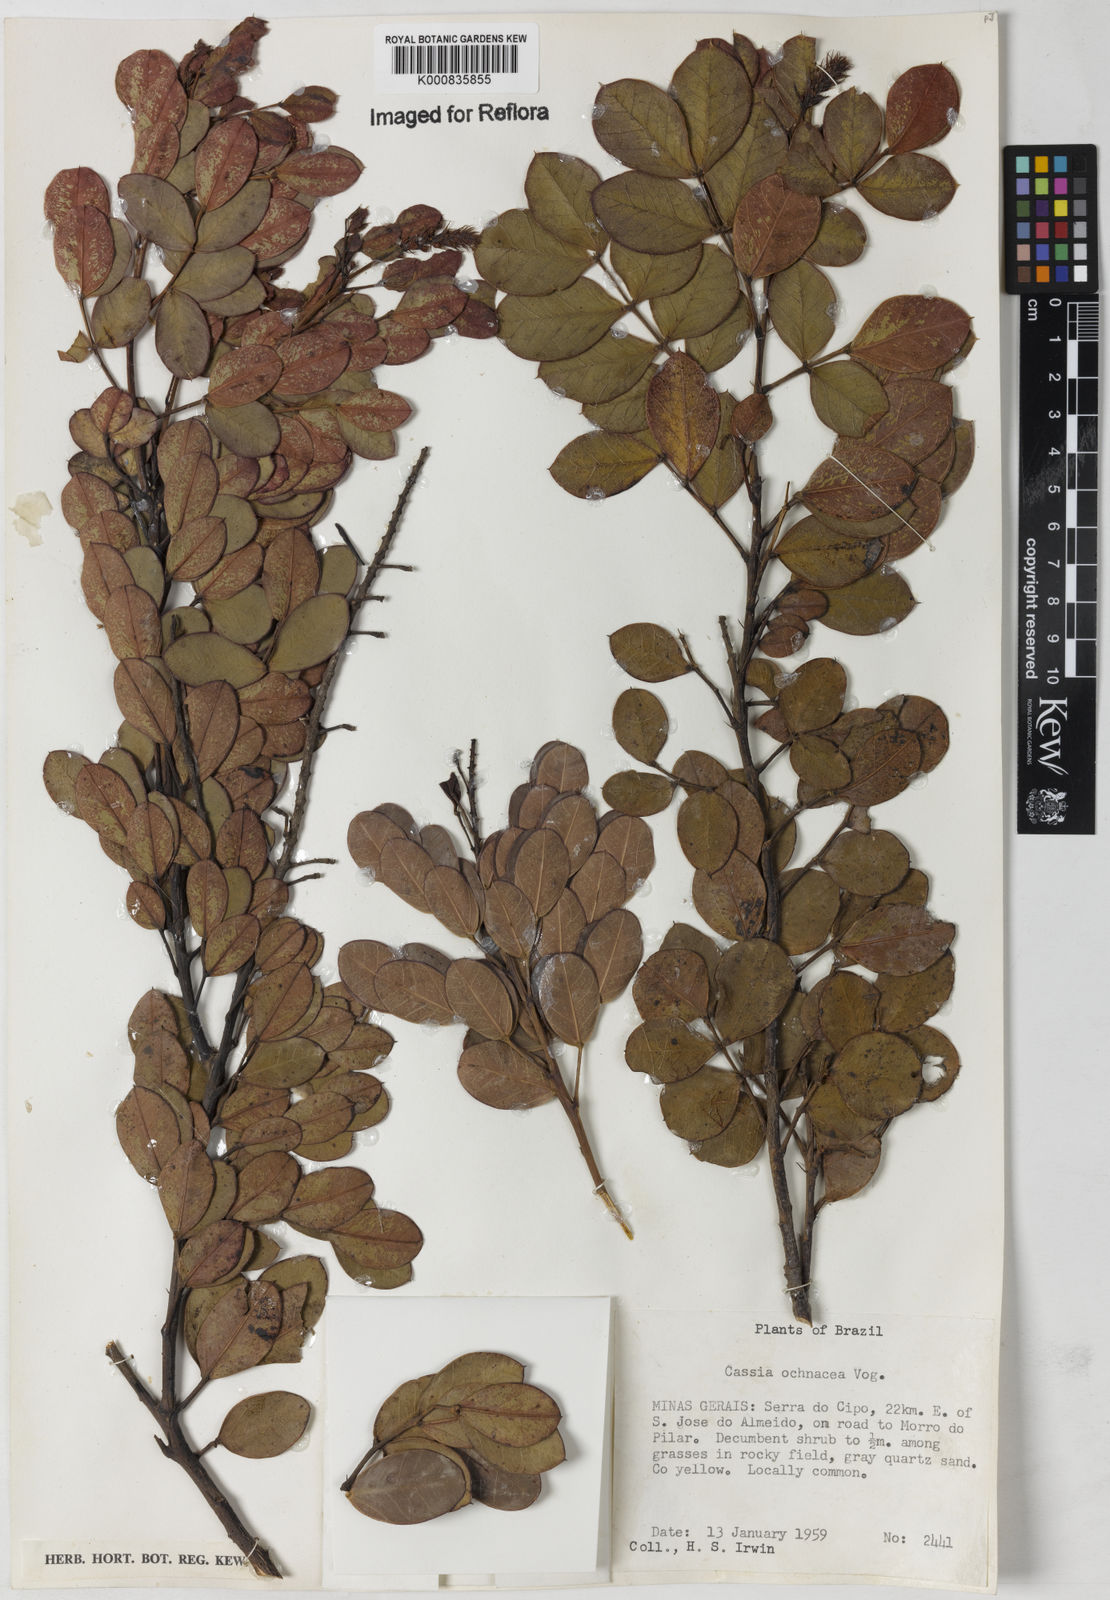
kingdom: Plantae
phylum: Tracheophyta
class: Magnoliopsida
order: Fabales
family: Fabaceae
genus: Chamaecrista
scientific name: Chamaecrista ochnacea
